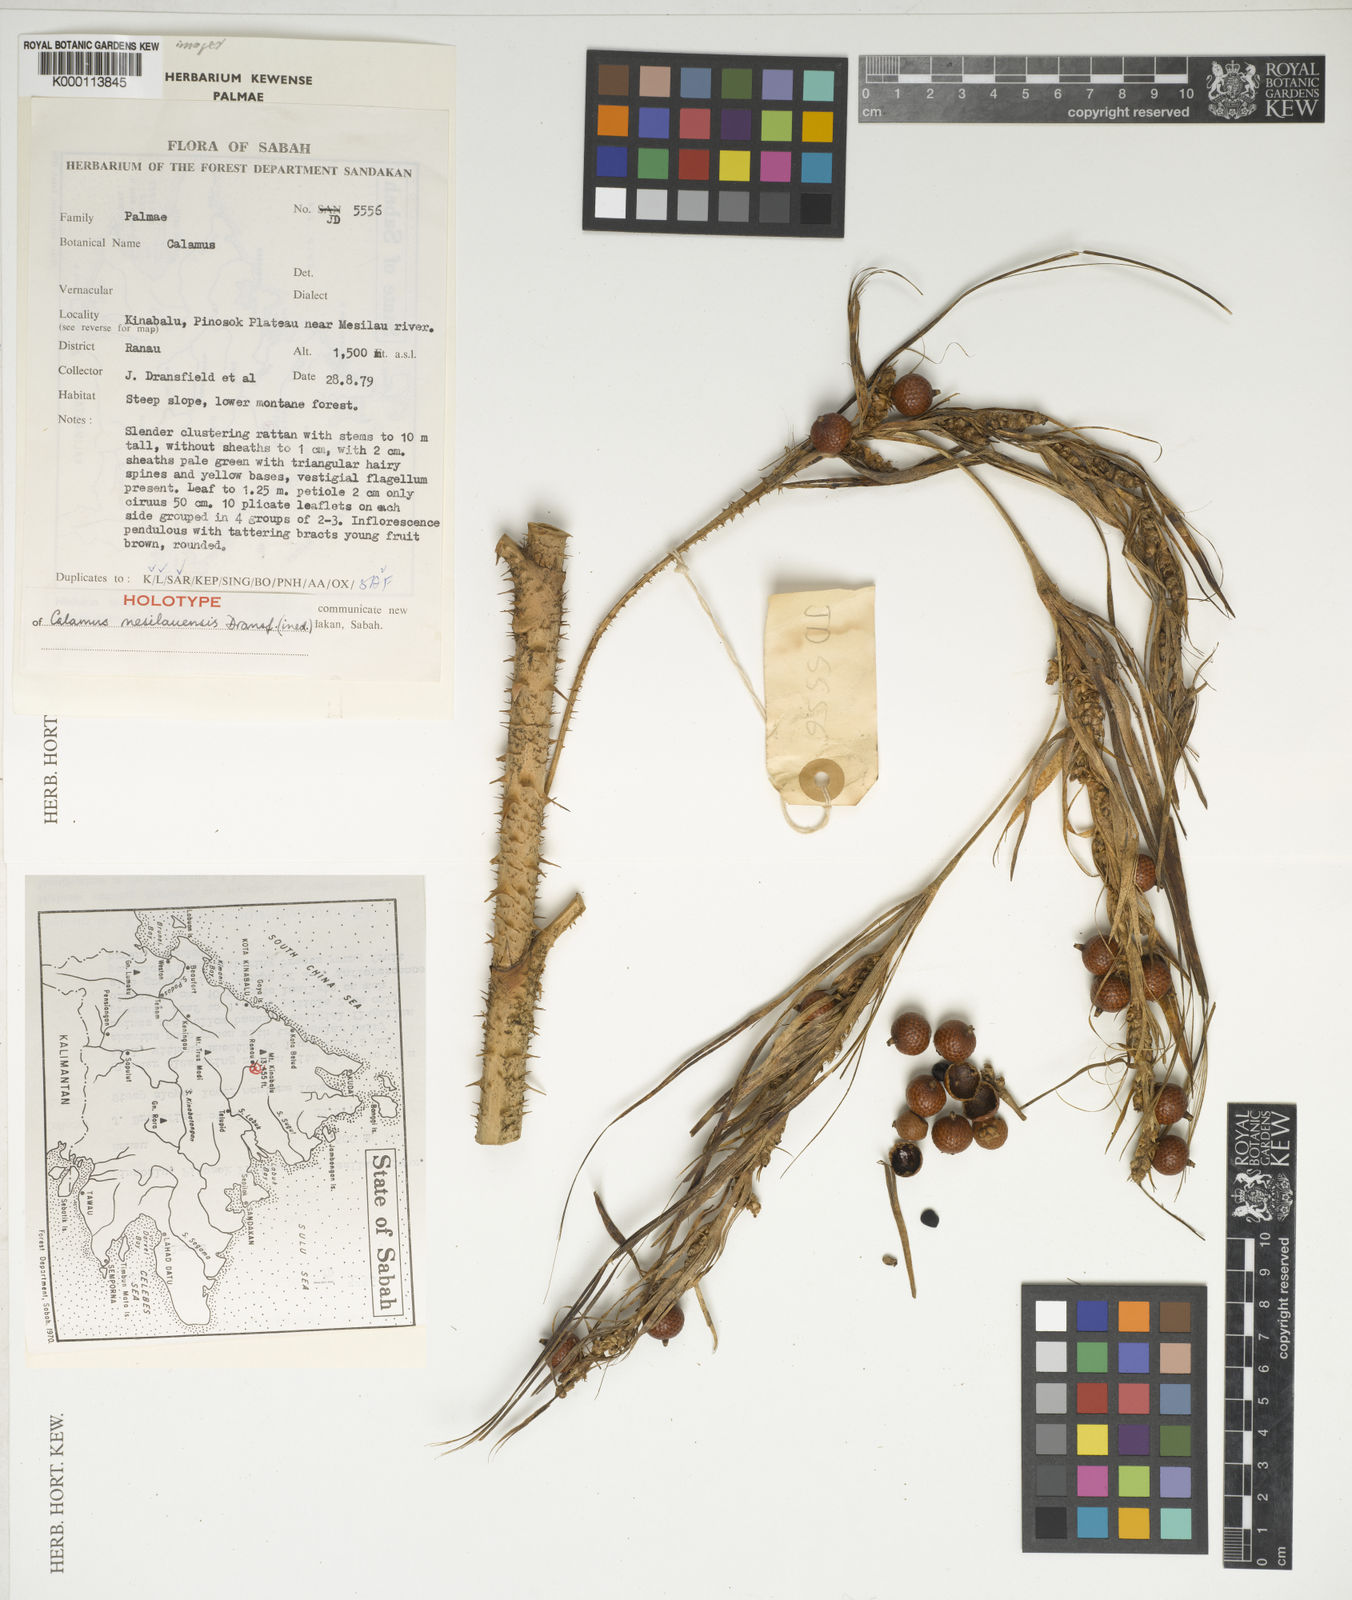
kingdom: Plantae
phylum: Tracheophyta
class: Liliopsida
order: Arecales
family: Arecaceae
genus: Calamus
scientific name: Calamus erioacanthus
